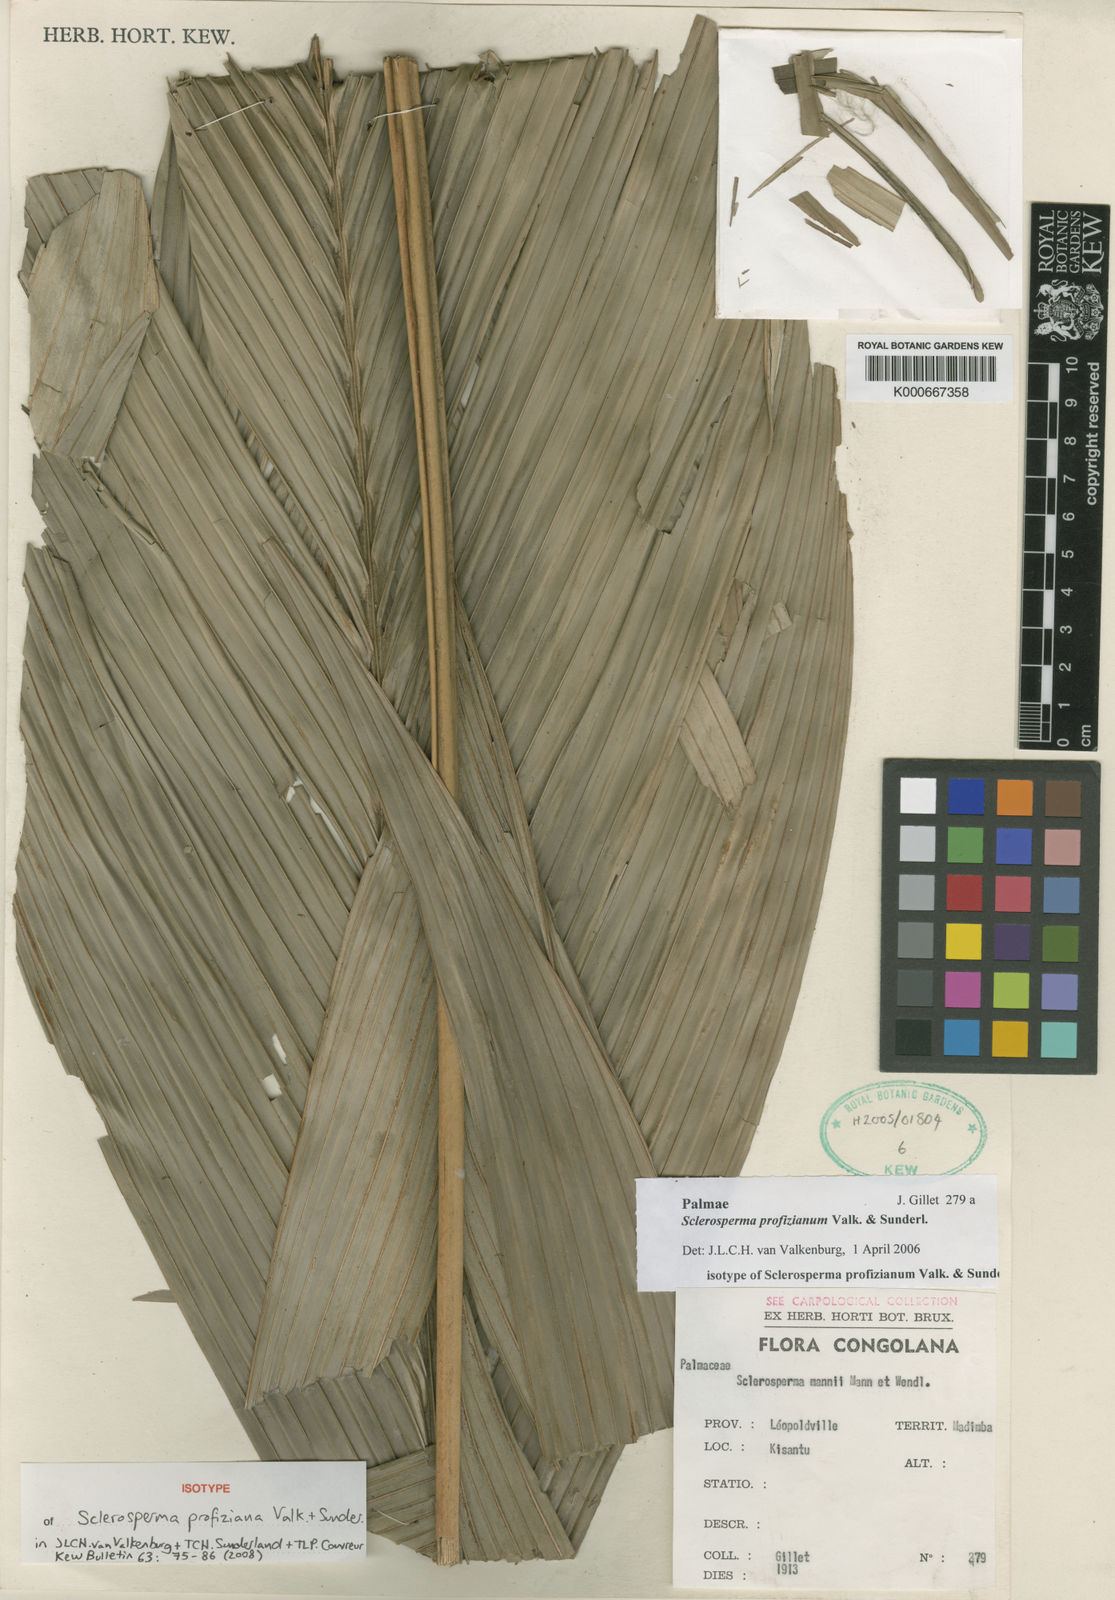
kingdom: Plantae
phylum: Tracheophyta
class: Liliopsida
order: Arecales
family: Arecaceae
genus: Sclerosperma
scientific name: Sclerosperma profizianum
